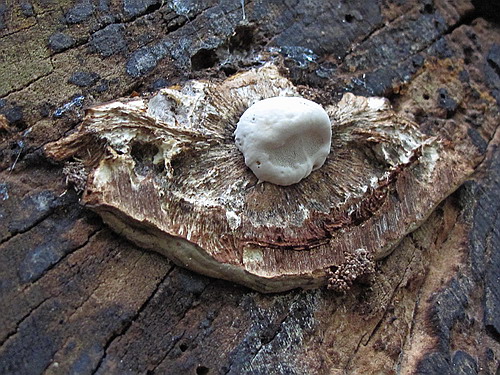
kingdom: Fungi
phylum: Basidiomycota
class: Agaricomycetes
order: Polyporales
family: Polyporaceae
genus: Ganoderma
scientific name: Ganoderma applanatum
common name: flad lakporesvamp
